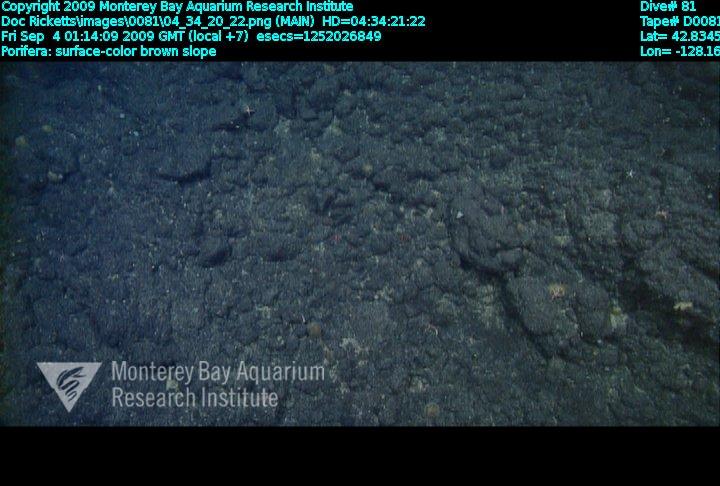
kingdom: Animalia
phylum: Porifera
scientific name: Porifera
